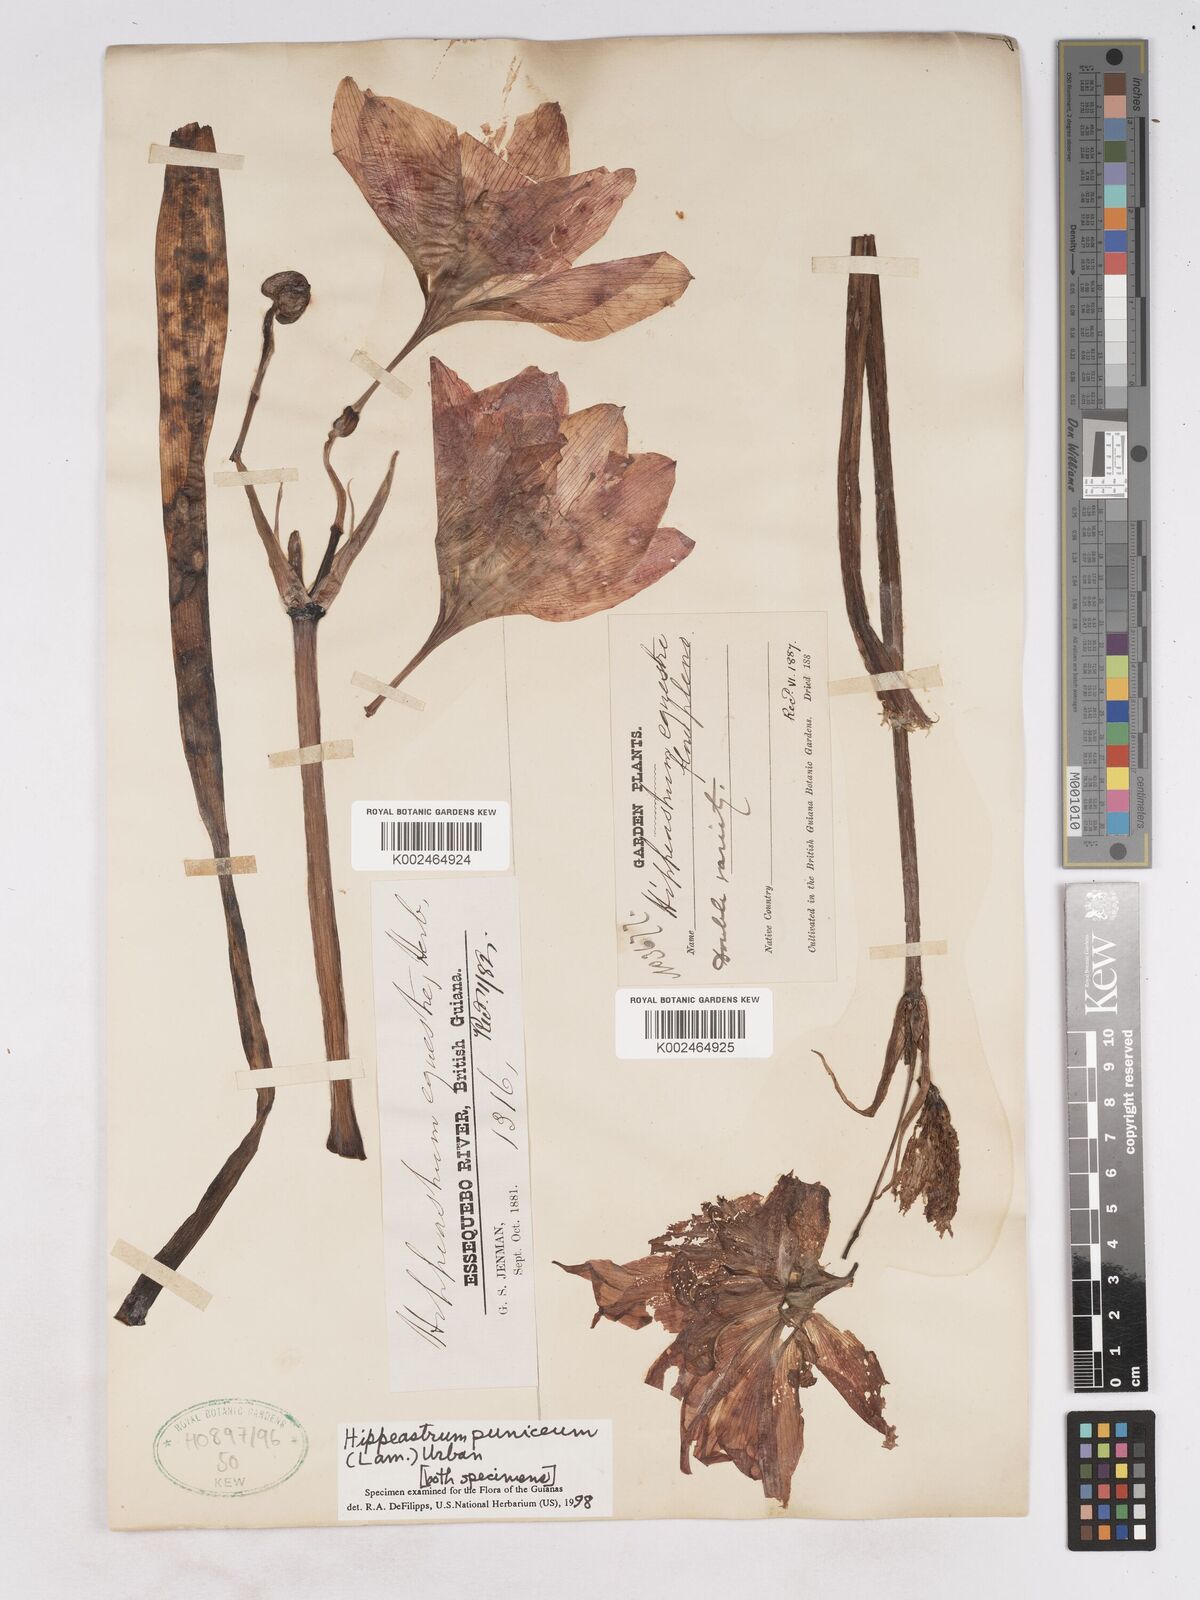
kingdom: Plantae
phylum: Tracheophyta
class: Liliopsida
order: Asparagales
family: Amaryllidaceae
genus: Hippeastrum
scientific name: Hippeastrum puniceum
